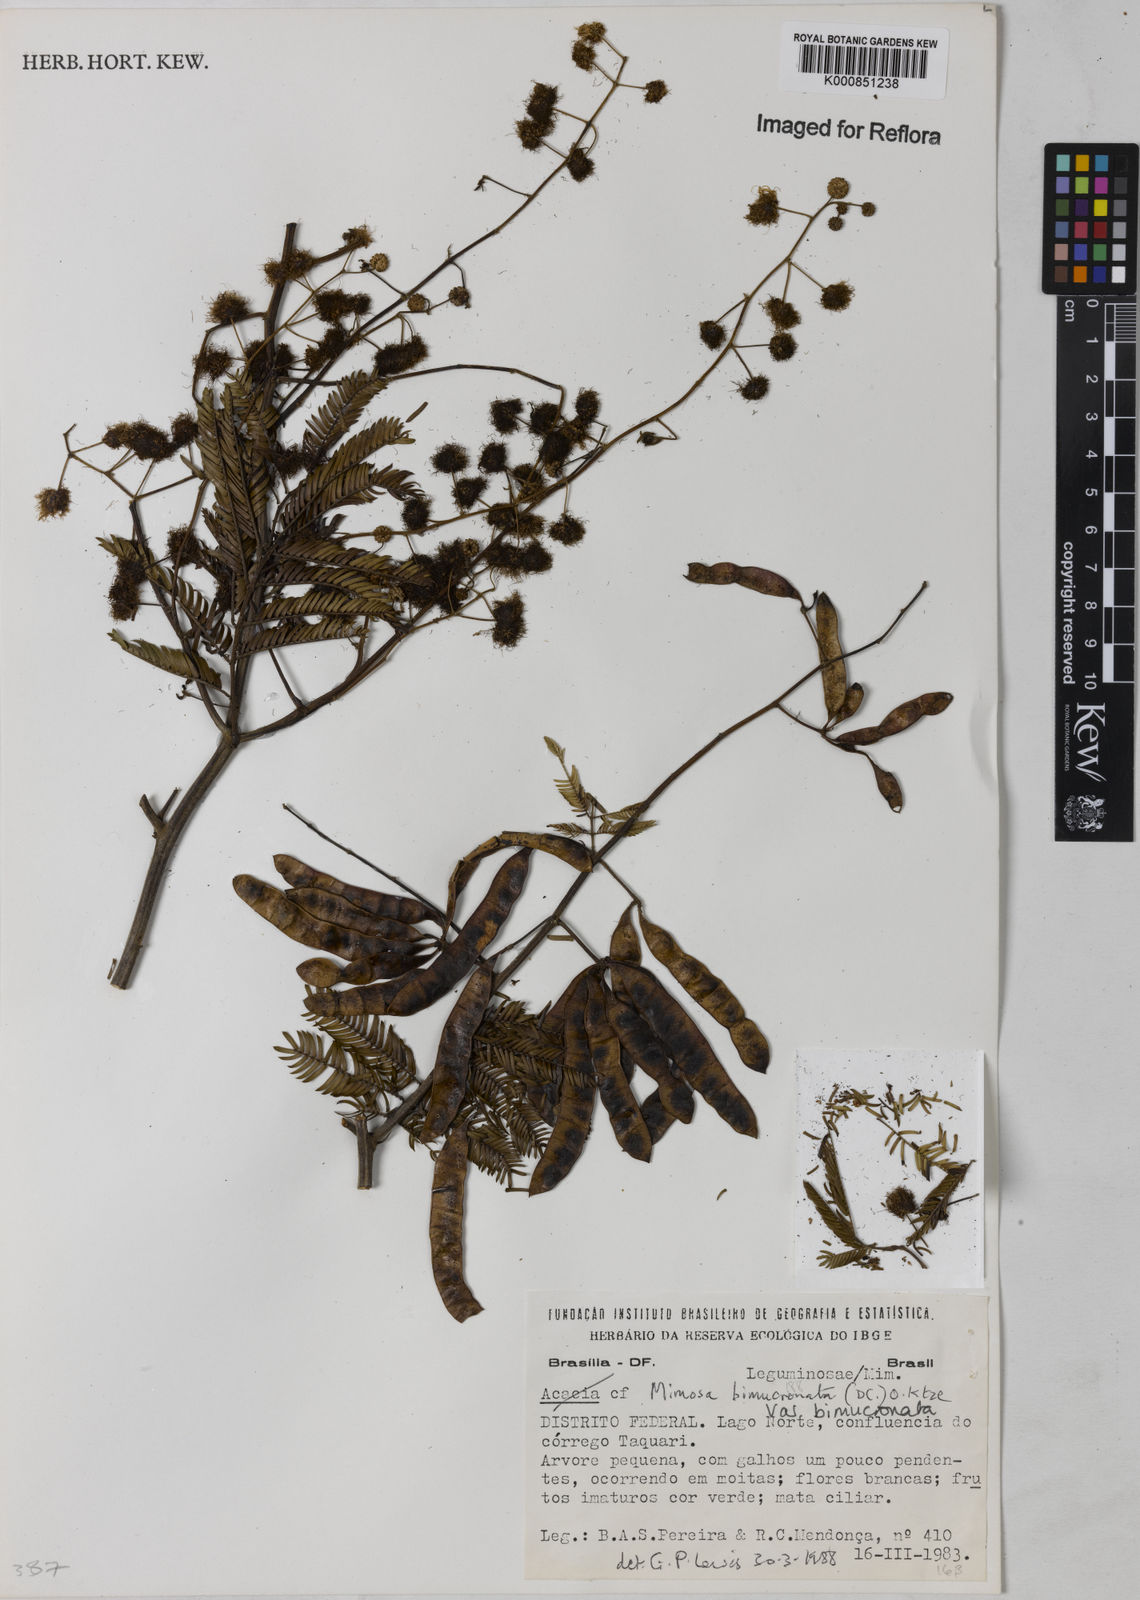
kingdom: Plantae
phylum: Tracheophyta
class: Magnoliopsida
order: Fabales
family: Fabaceae
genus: Mimosa
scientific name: Mimosa bimucronata
